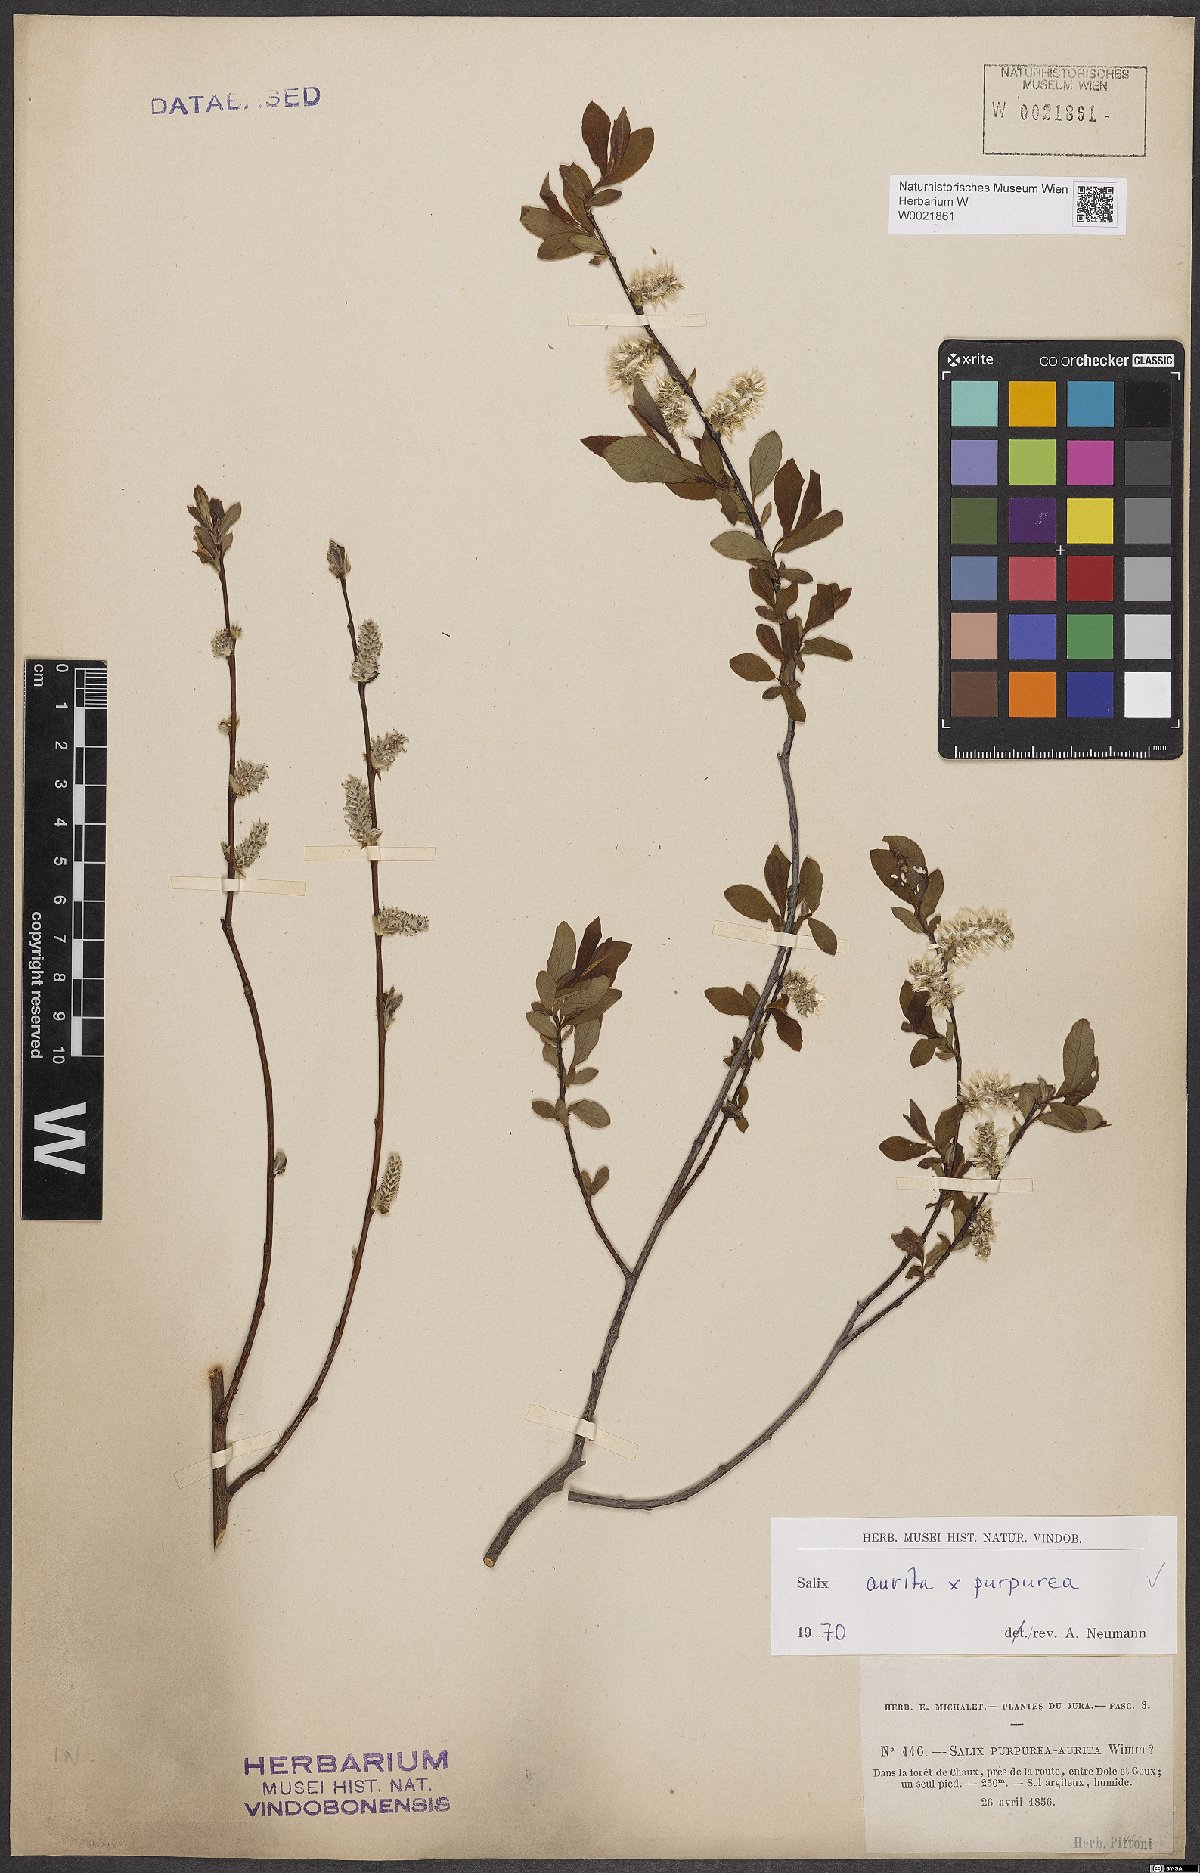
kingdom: Plantae
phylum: Tracheophyta
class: Magnoliopsida
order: Malpighiales
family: Salicaceae
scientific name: Salicaceae
